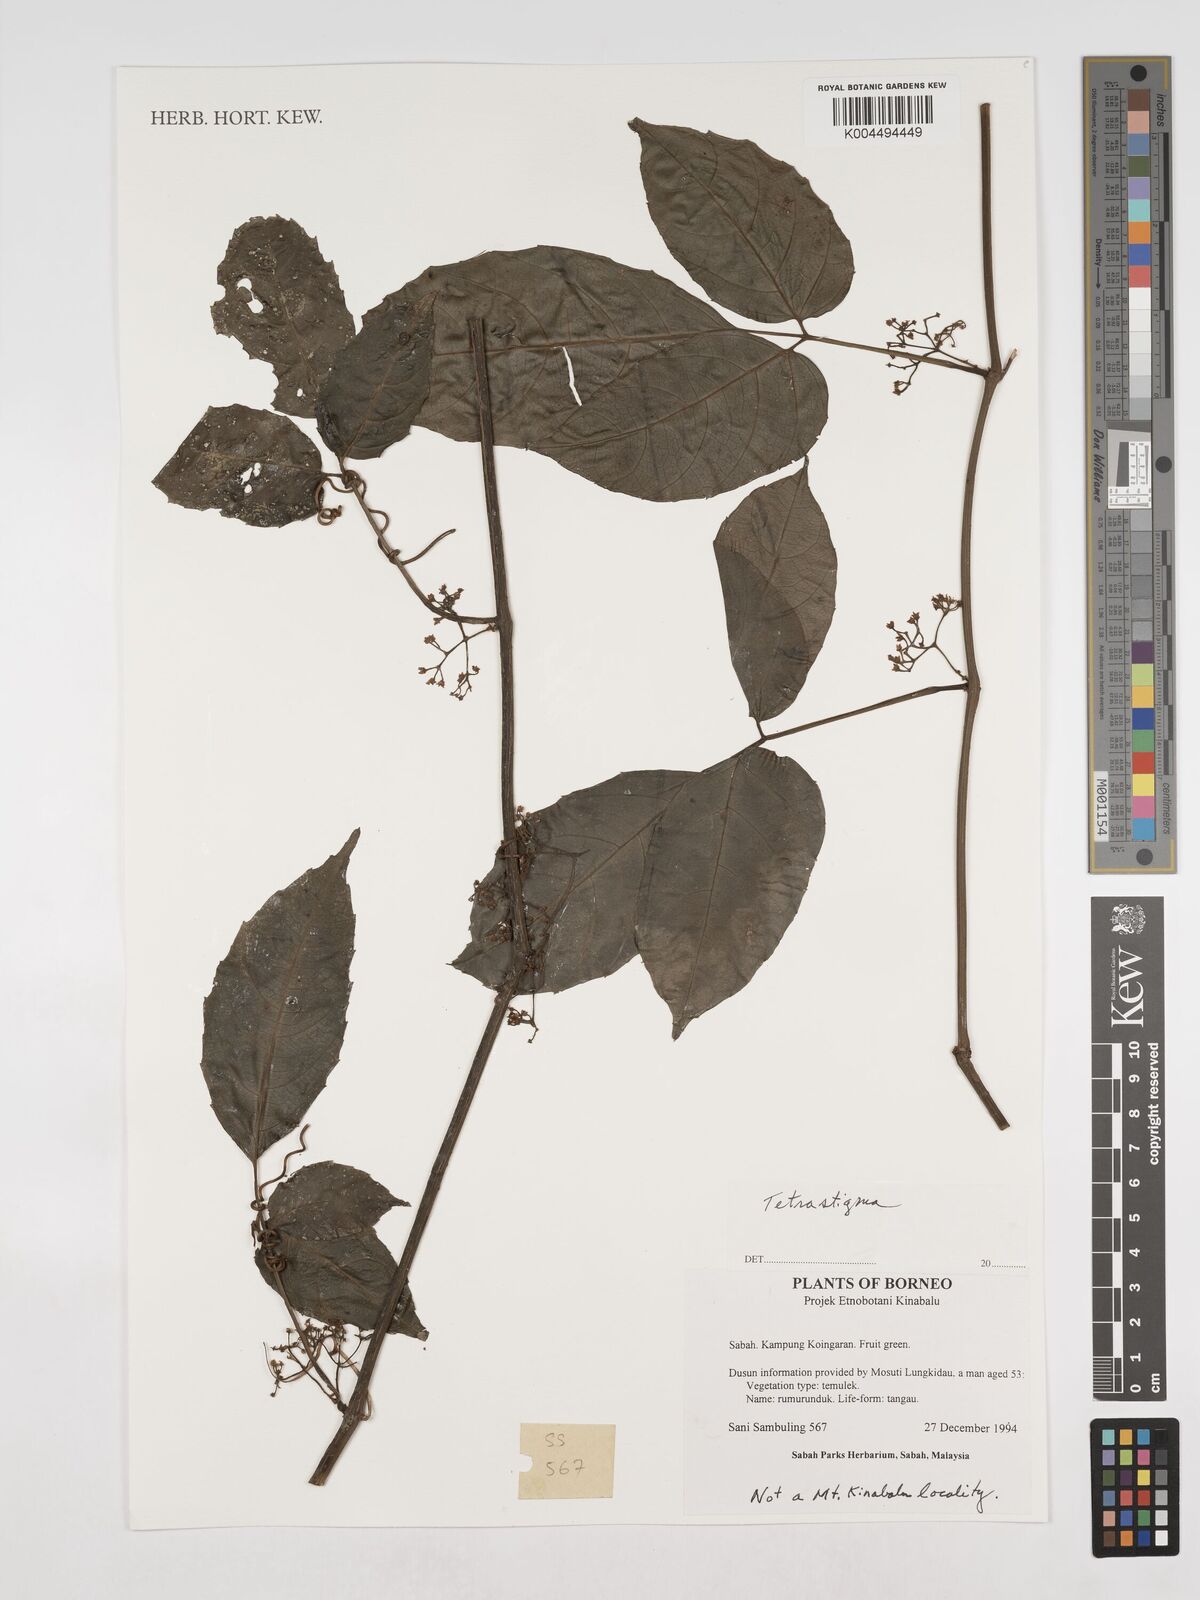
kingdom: Plantae
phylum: Tracheophyta
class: Magnoliopsida
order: Vitales
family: Vitaceae
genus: Tetrastigma
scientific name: Tetrastigma
